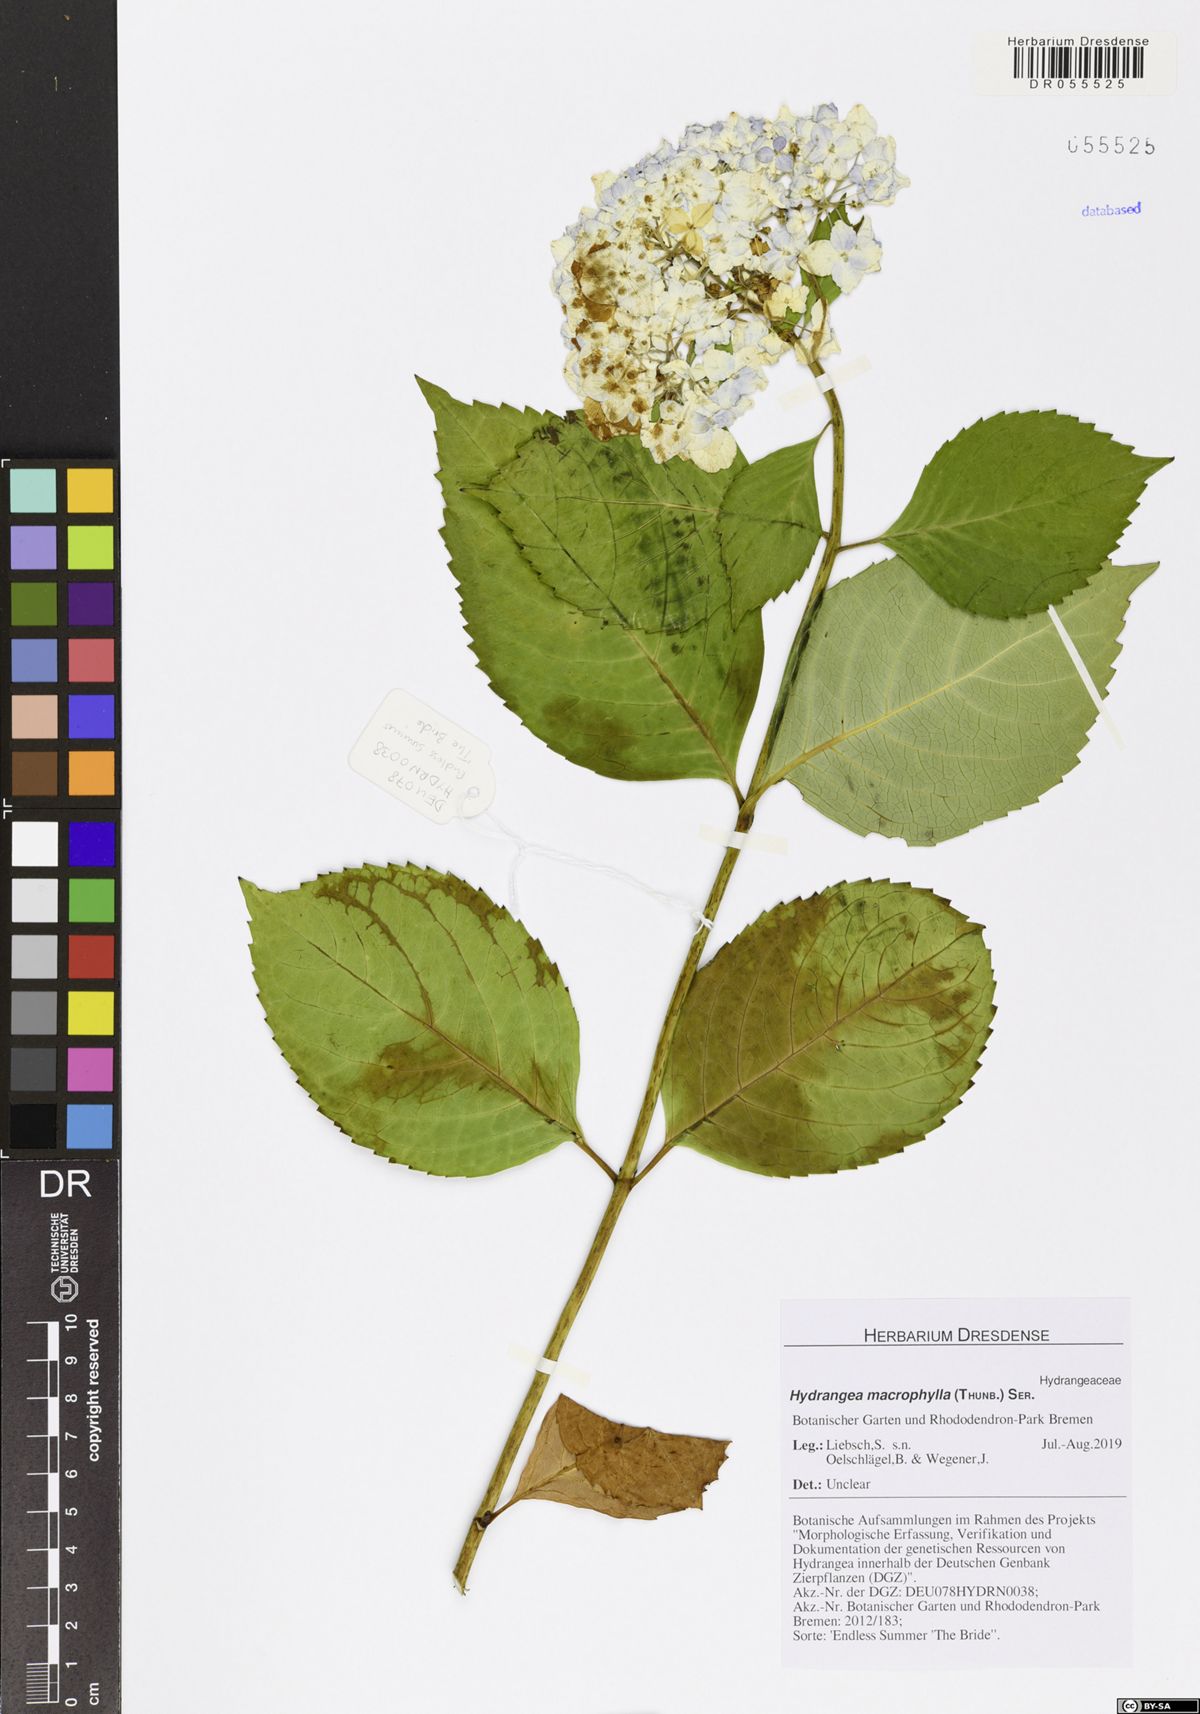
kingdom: Plantae
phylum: Tracheophyta
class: Magnoliopsida
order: Cornales
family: Hydrangeaceae
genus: Hydrangea
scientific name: Hydrangea macrophylla
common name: Hydrangea
